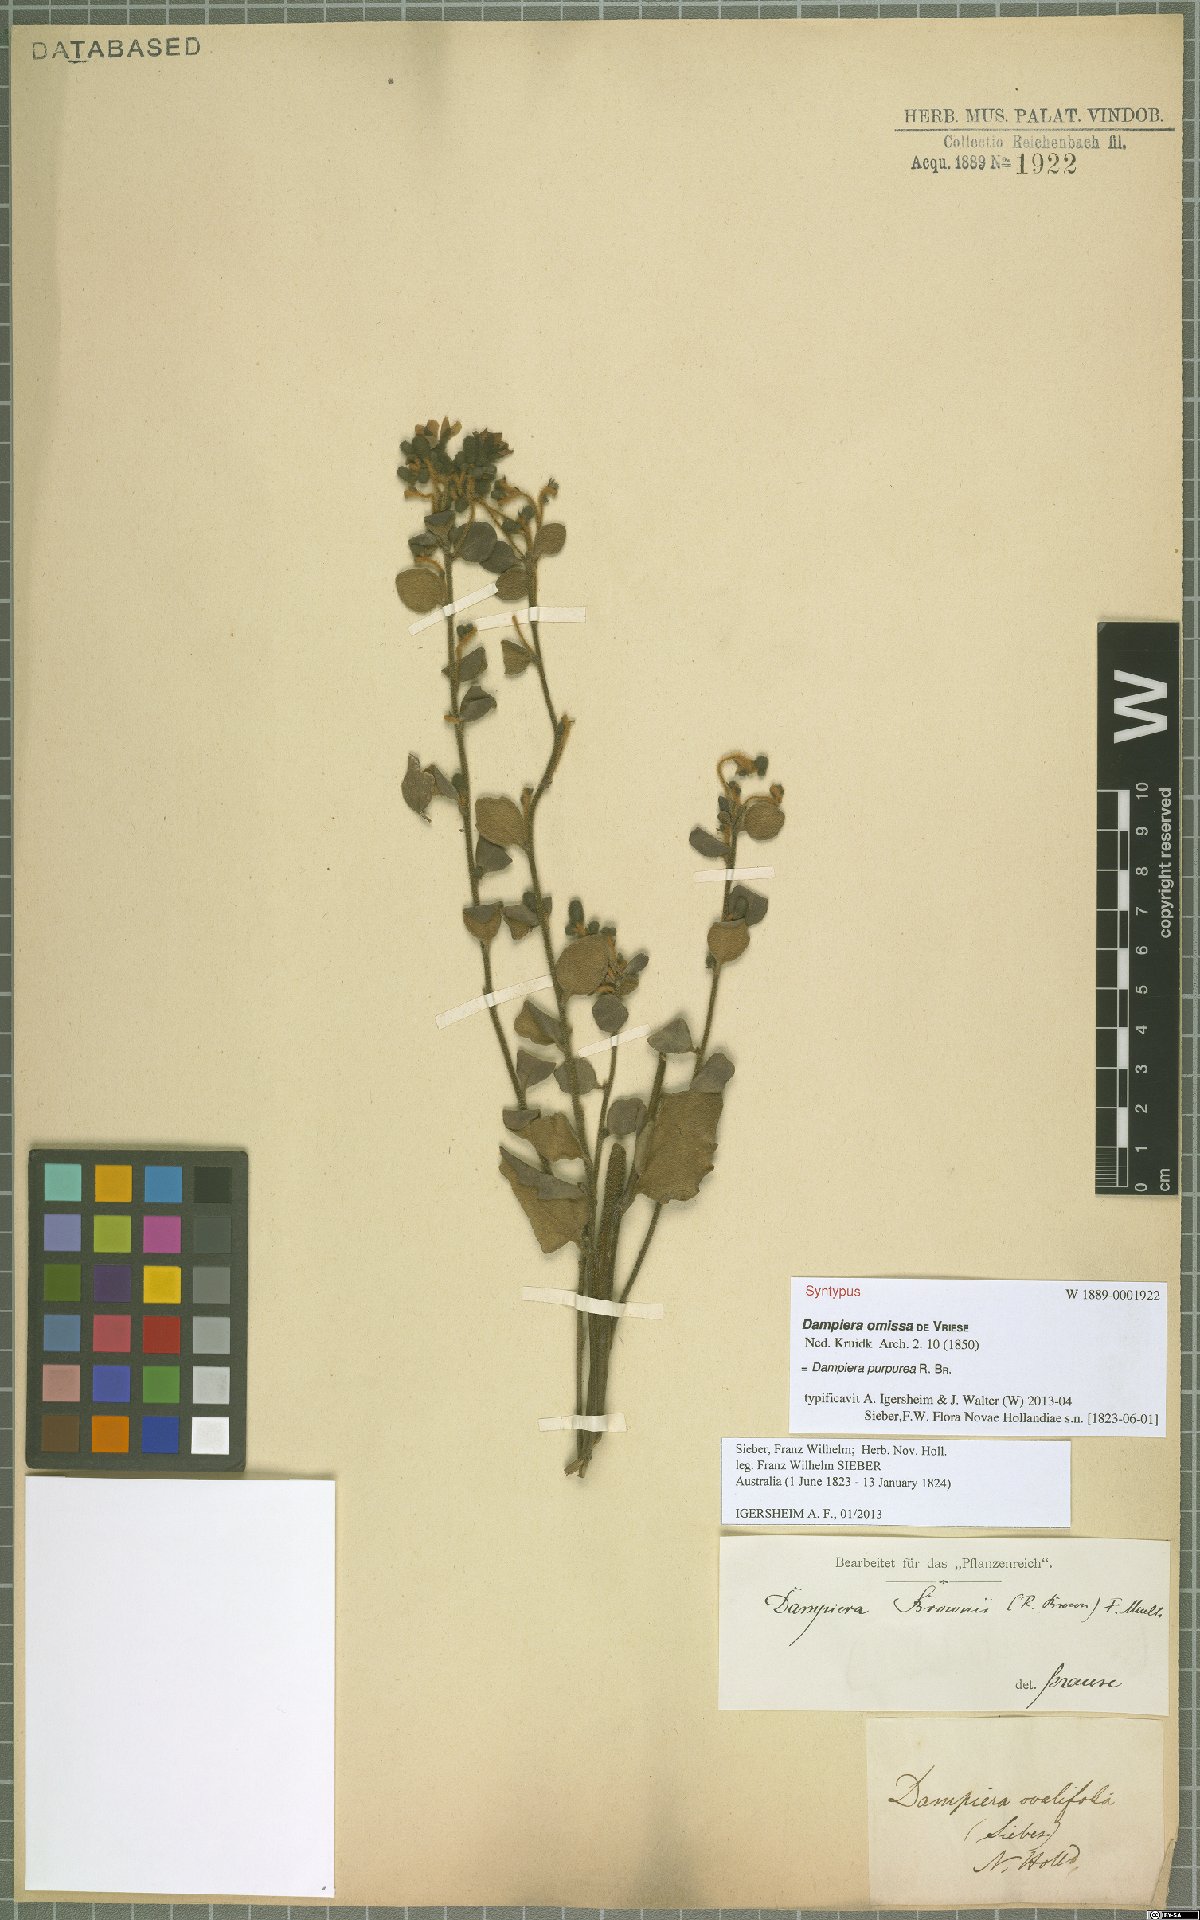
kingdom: Plantae
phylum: Tracheophyta
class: Magnoliopsida
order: Asterales
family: Goodeniaceae
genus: Dampiera
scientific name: Dampiera purpurea
